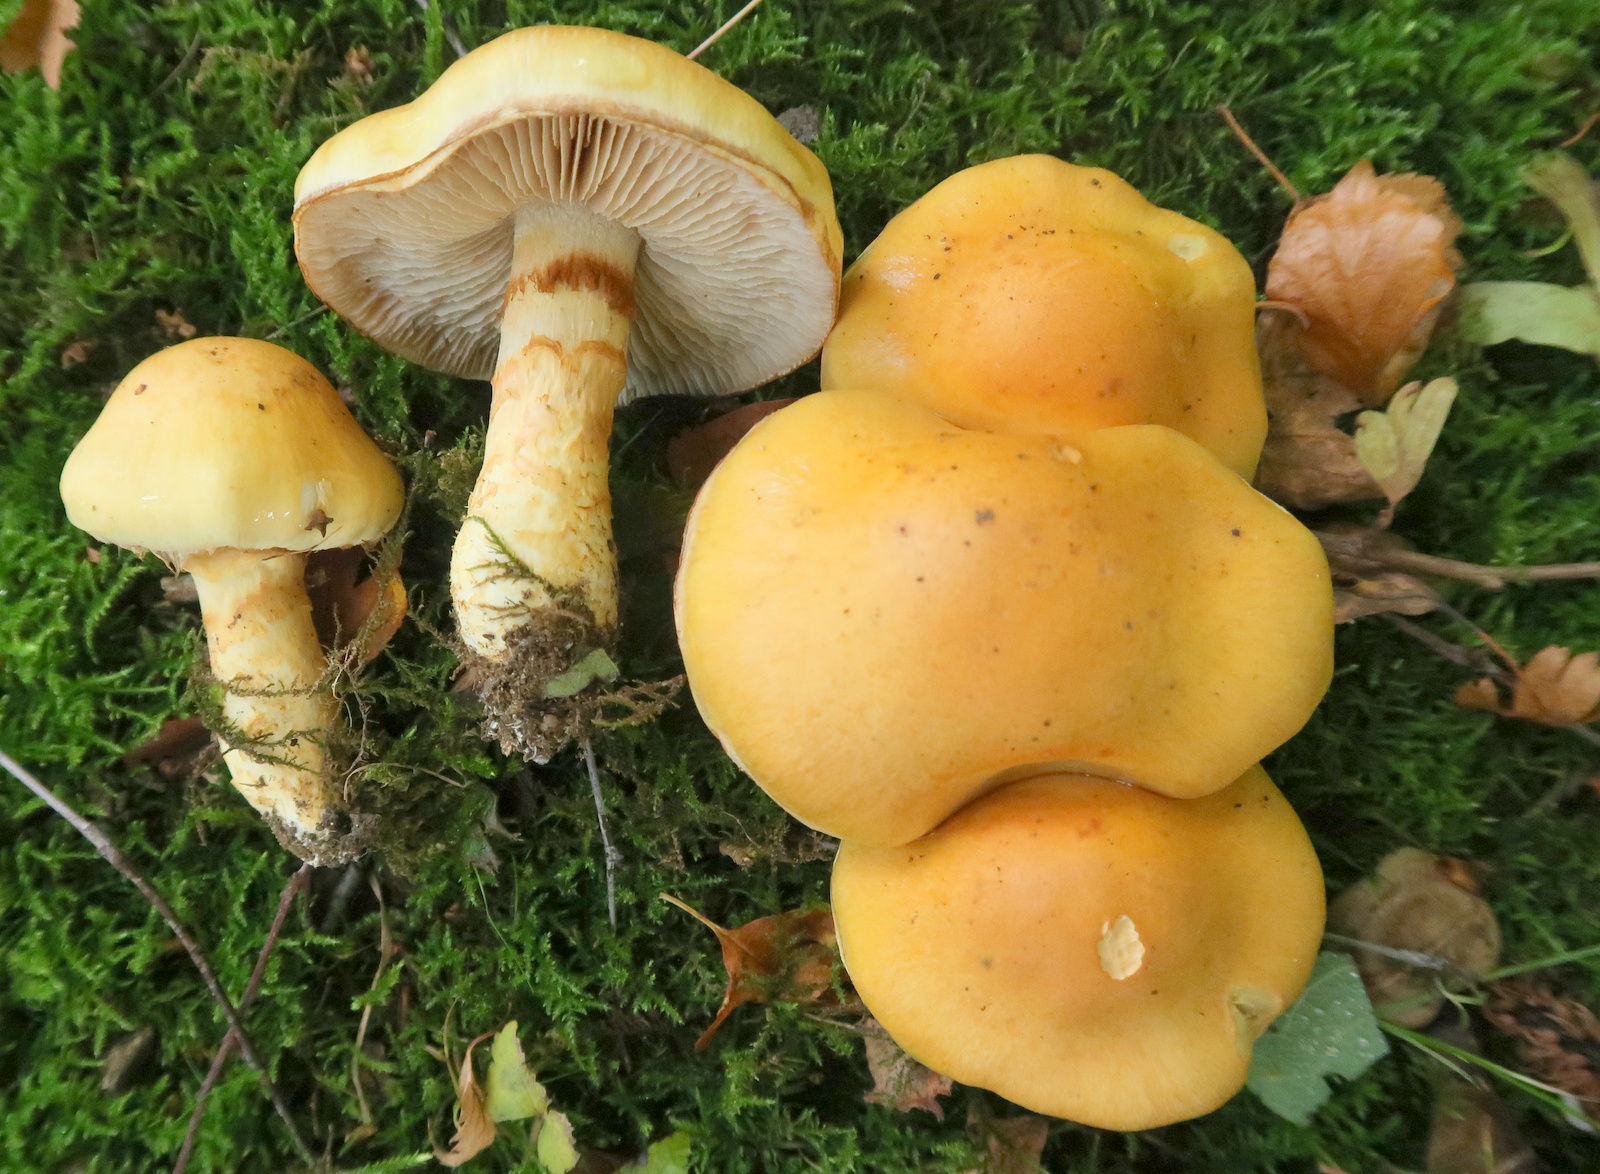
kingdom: Fungi
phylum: Basidiomycota
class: Agaricomycetes
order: Agaricales
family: Cortinariaceae
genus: Phlegmacium
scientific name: Phlegmacium triumphans
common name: gulbæltet slørhat
